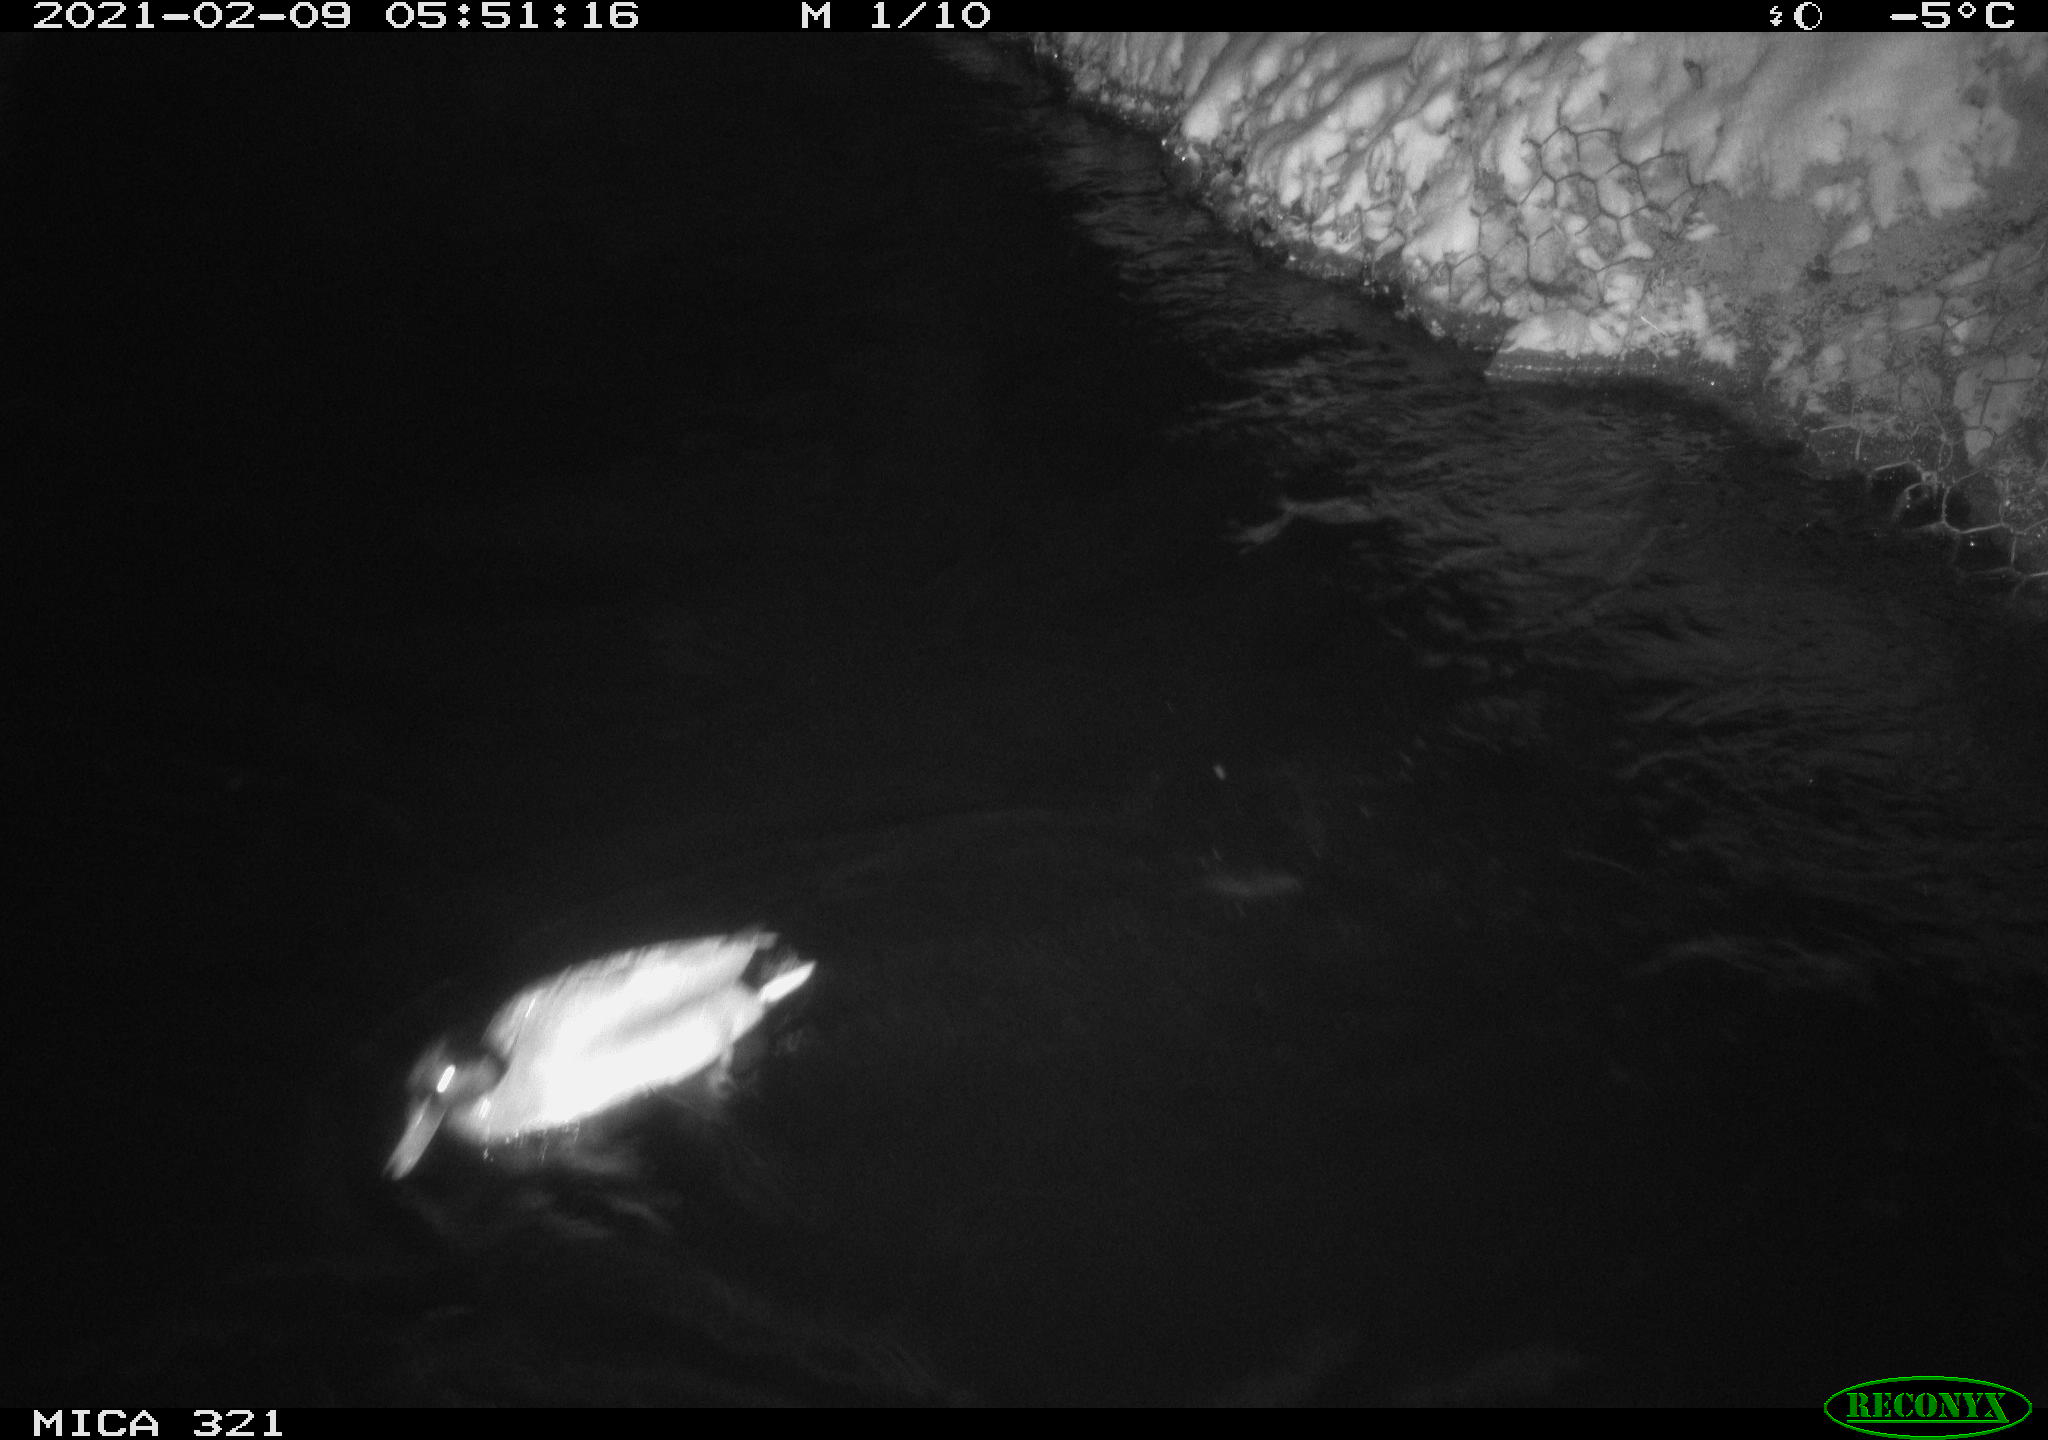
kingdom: Animalia
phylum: Chordata
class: Aves
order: Anseriformes
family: Anatidae
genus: Anas
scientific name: Anas platyrhynchos
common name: Mallard
